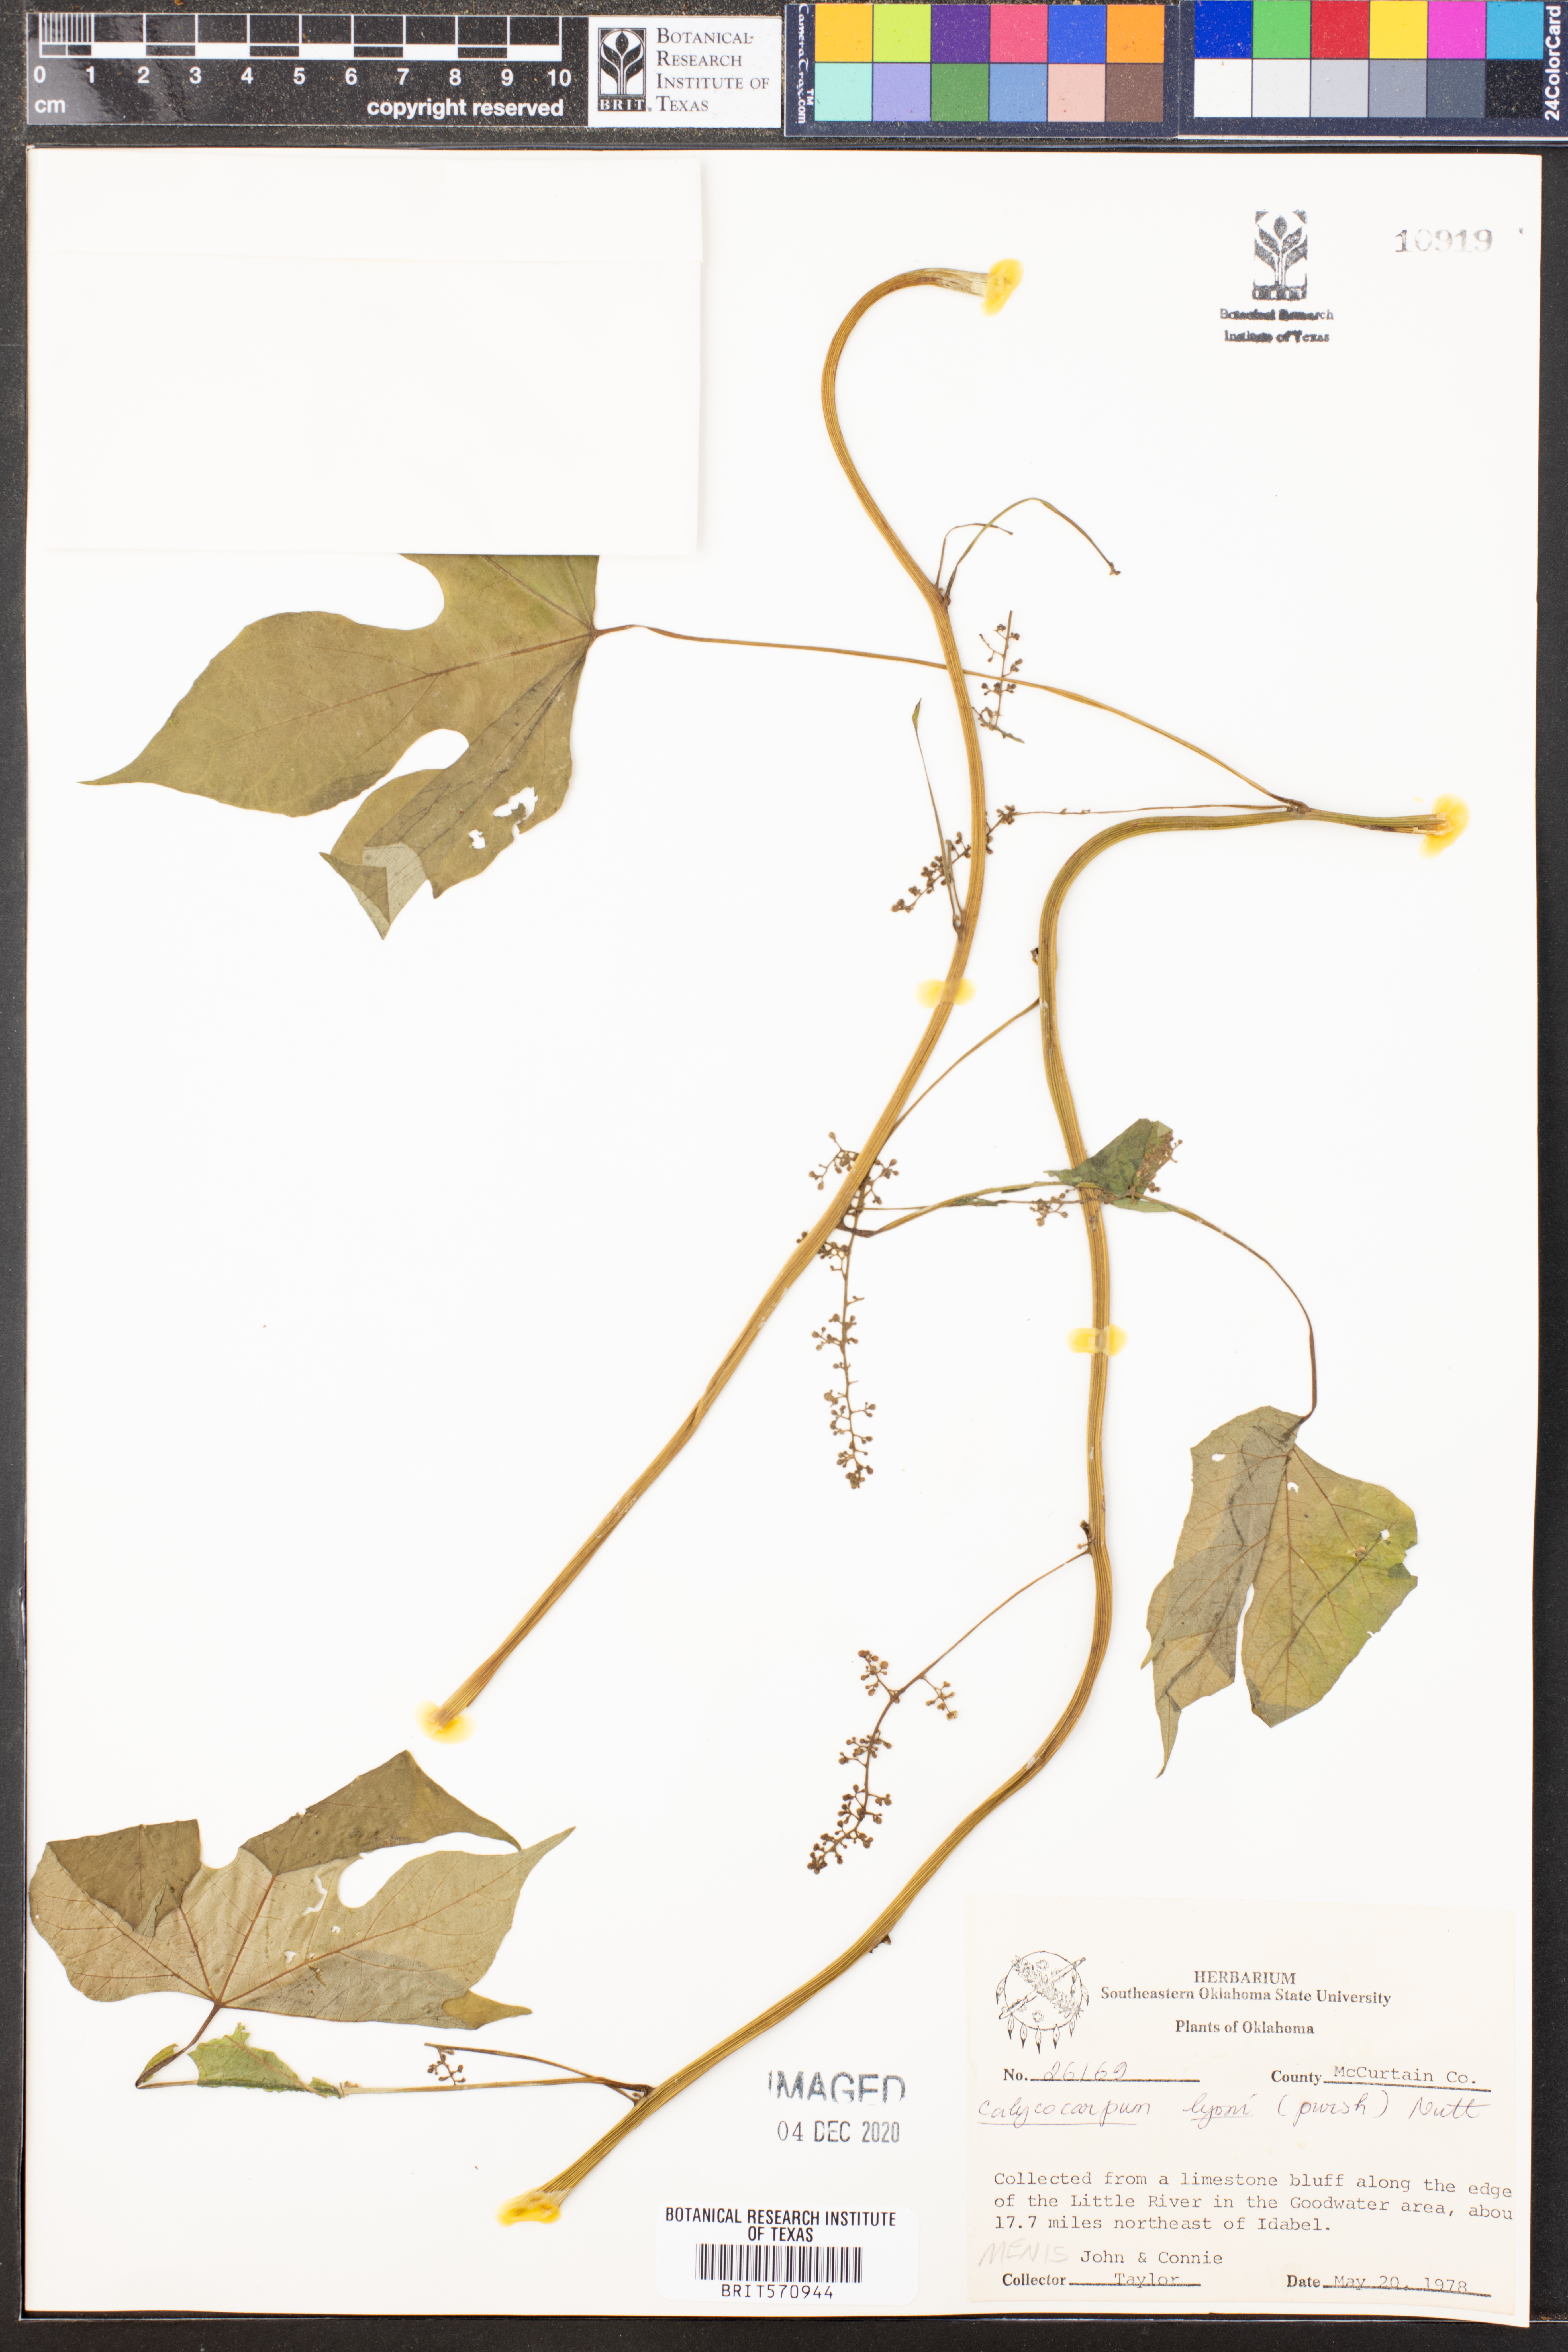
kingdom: Plantae
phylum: Tracheophyta
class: Magnoliopsida
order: Ranunculales
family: Menispermaceae
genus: Calycocarpum
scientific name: Calycocarpum lyonii
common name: Cupseed
